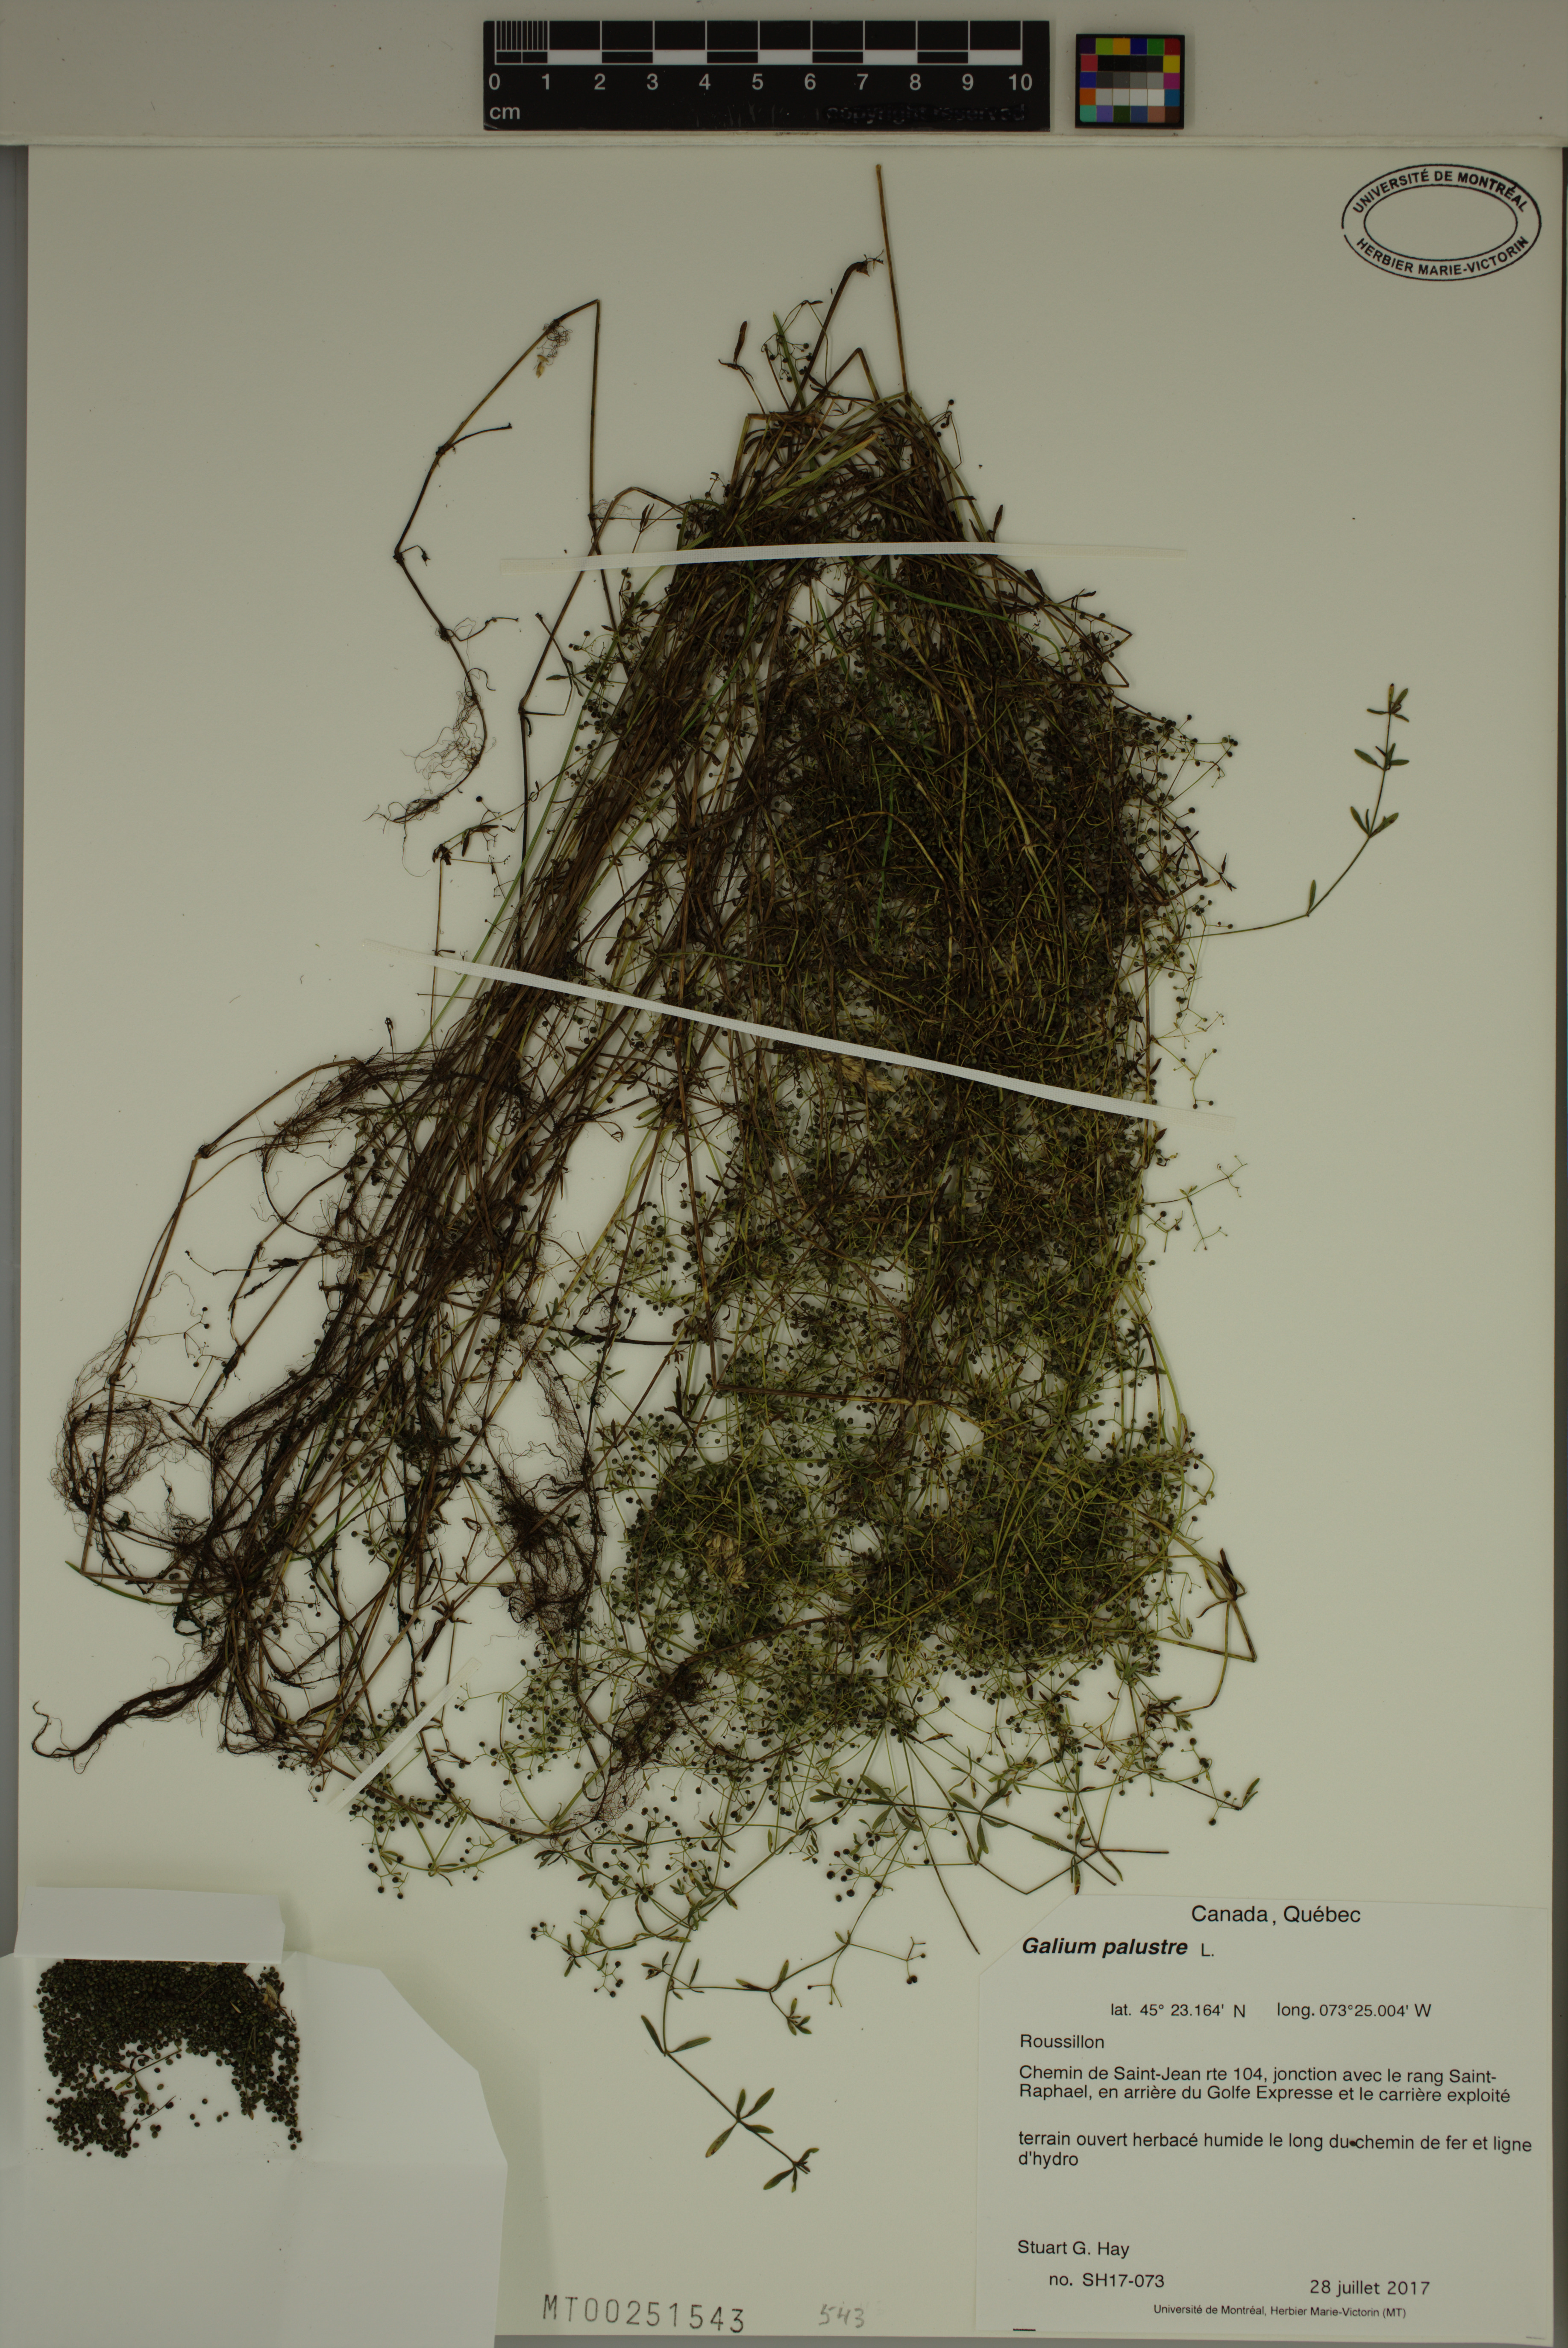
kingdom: Plantae
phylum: Tracheophyta
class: Magnoliopsida
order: Gentianales
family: Rubiaceae
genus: Galium
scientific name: Galium palustre
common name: Common marsh-bedstraw
